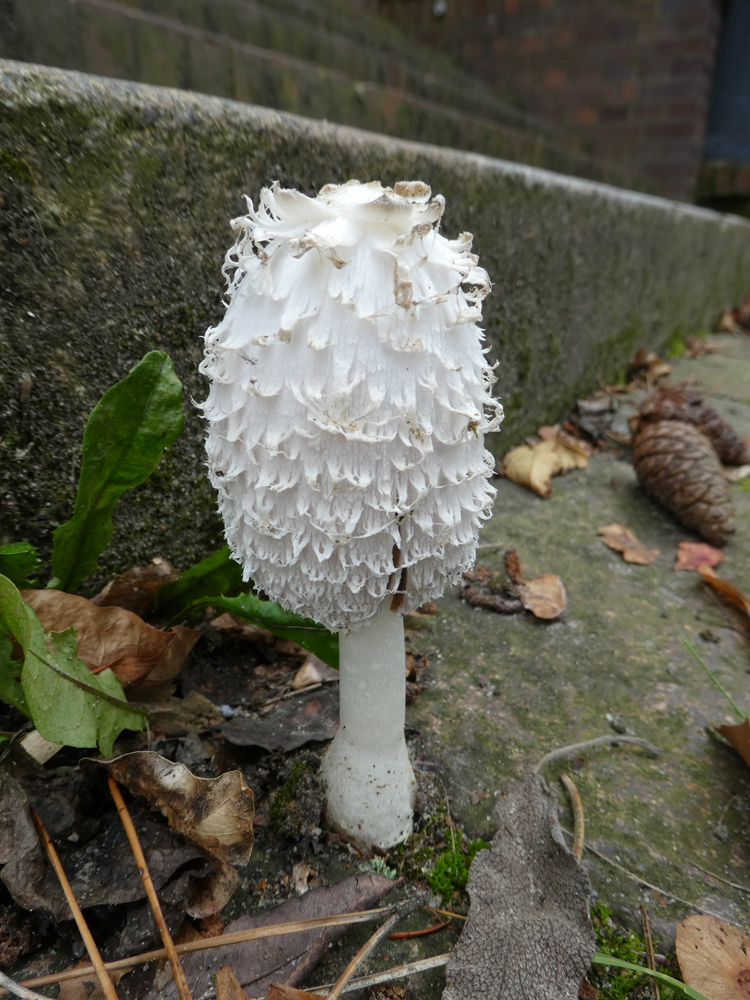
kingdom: Fungi
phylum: Basidiomycota
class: Agaricomycetes
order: Agaricales
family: Agaricaceae
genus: Coprinus
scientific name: Coprinus comatus
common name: Lawyer's wig
